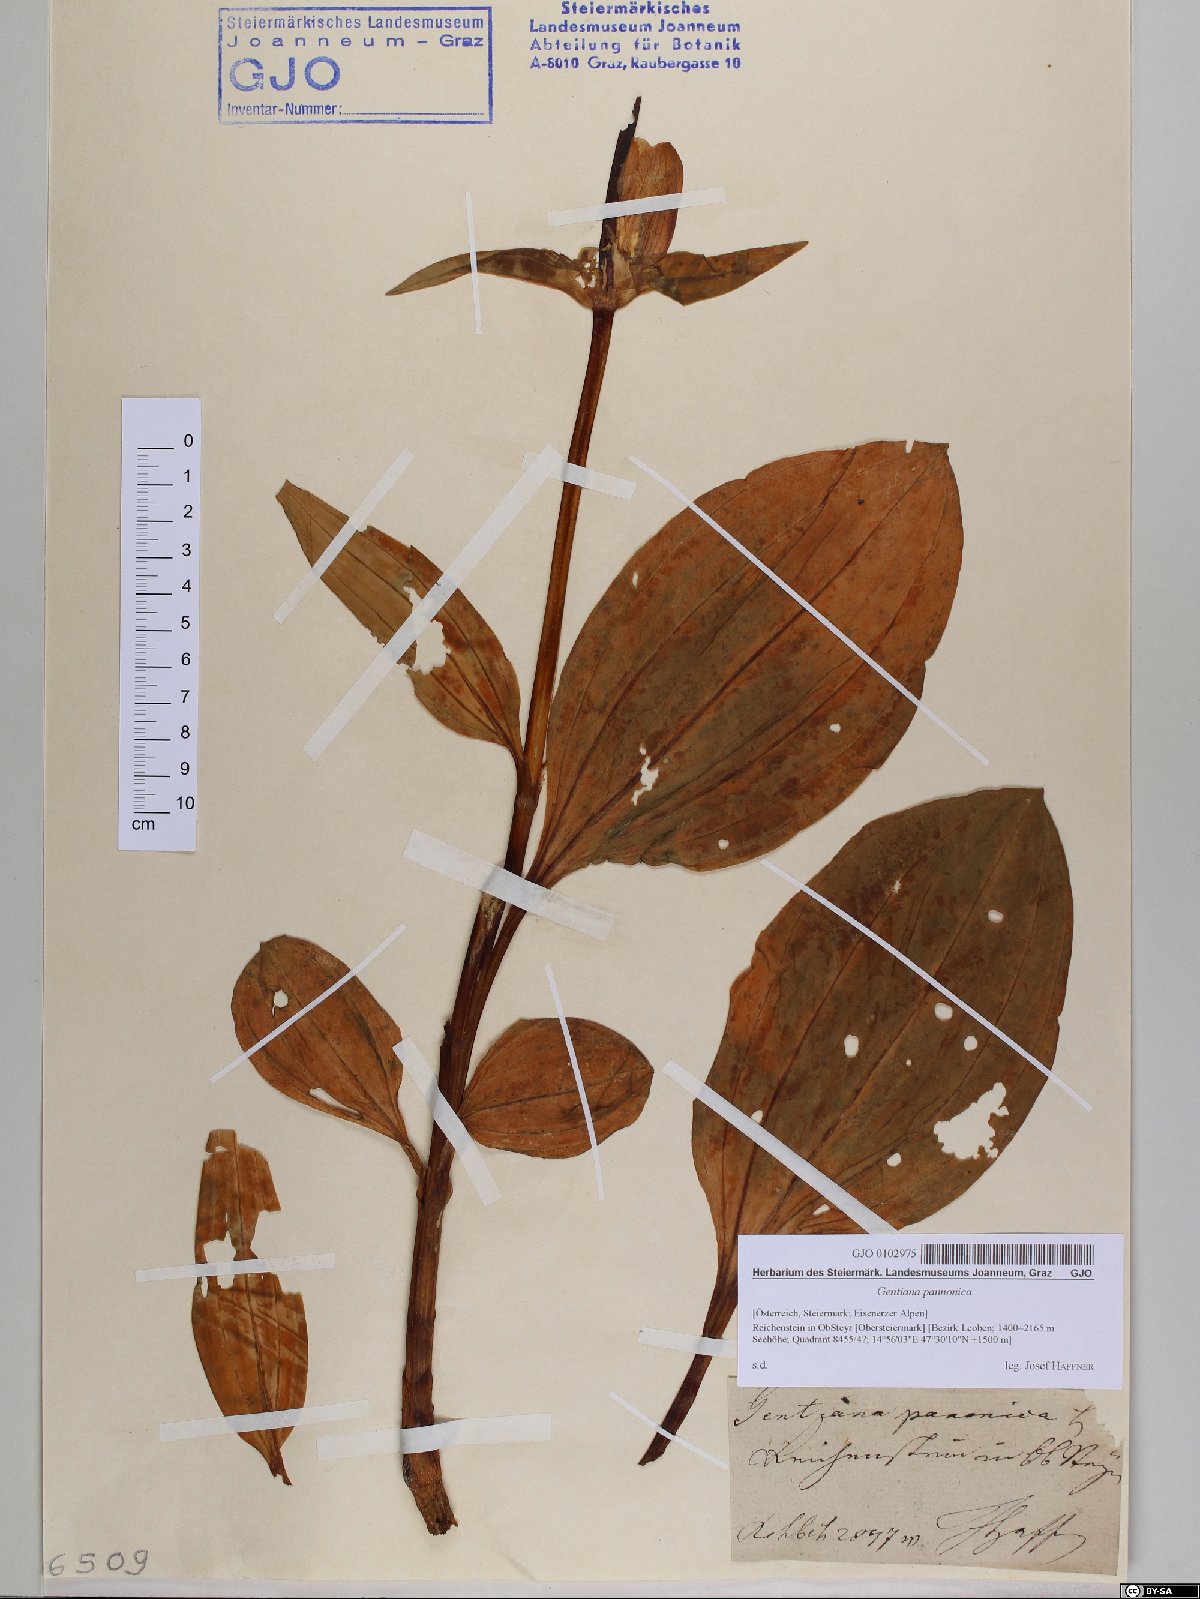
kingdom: Plantae
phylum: Tracheophyta
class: Magnoliopsida
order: Gentianales
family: Gentianaceae
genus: Gentiana
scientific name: Gentiana pannonica
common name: Hungarian gentian
